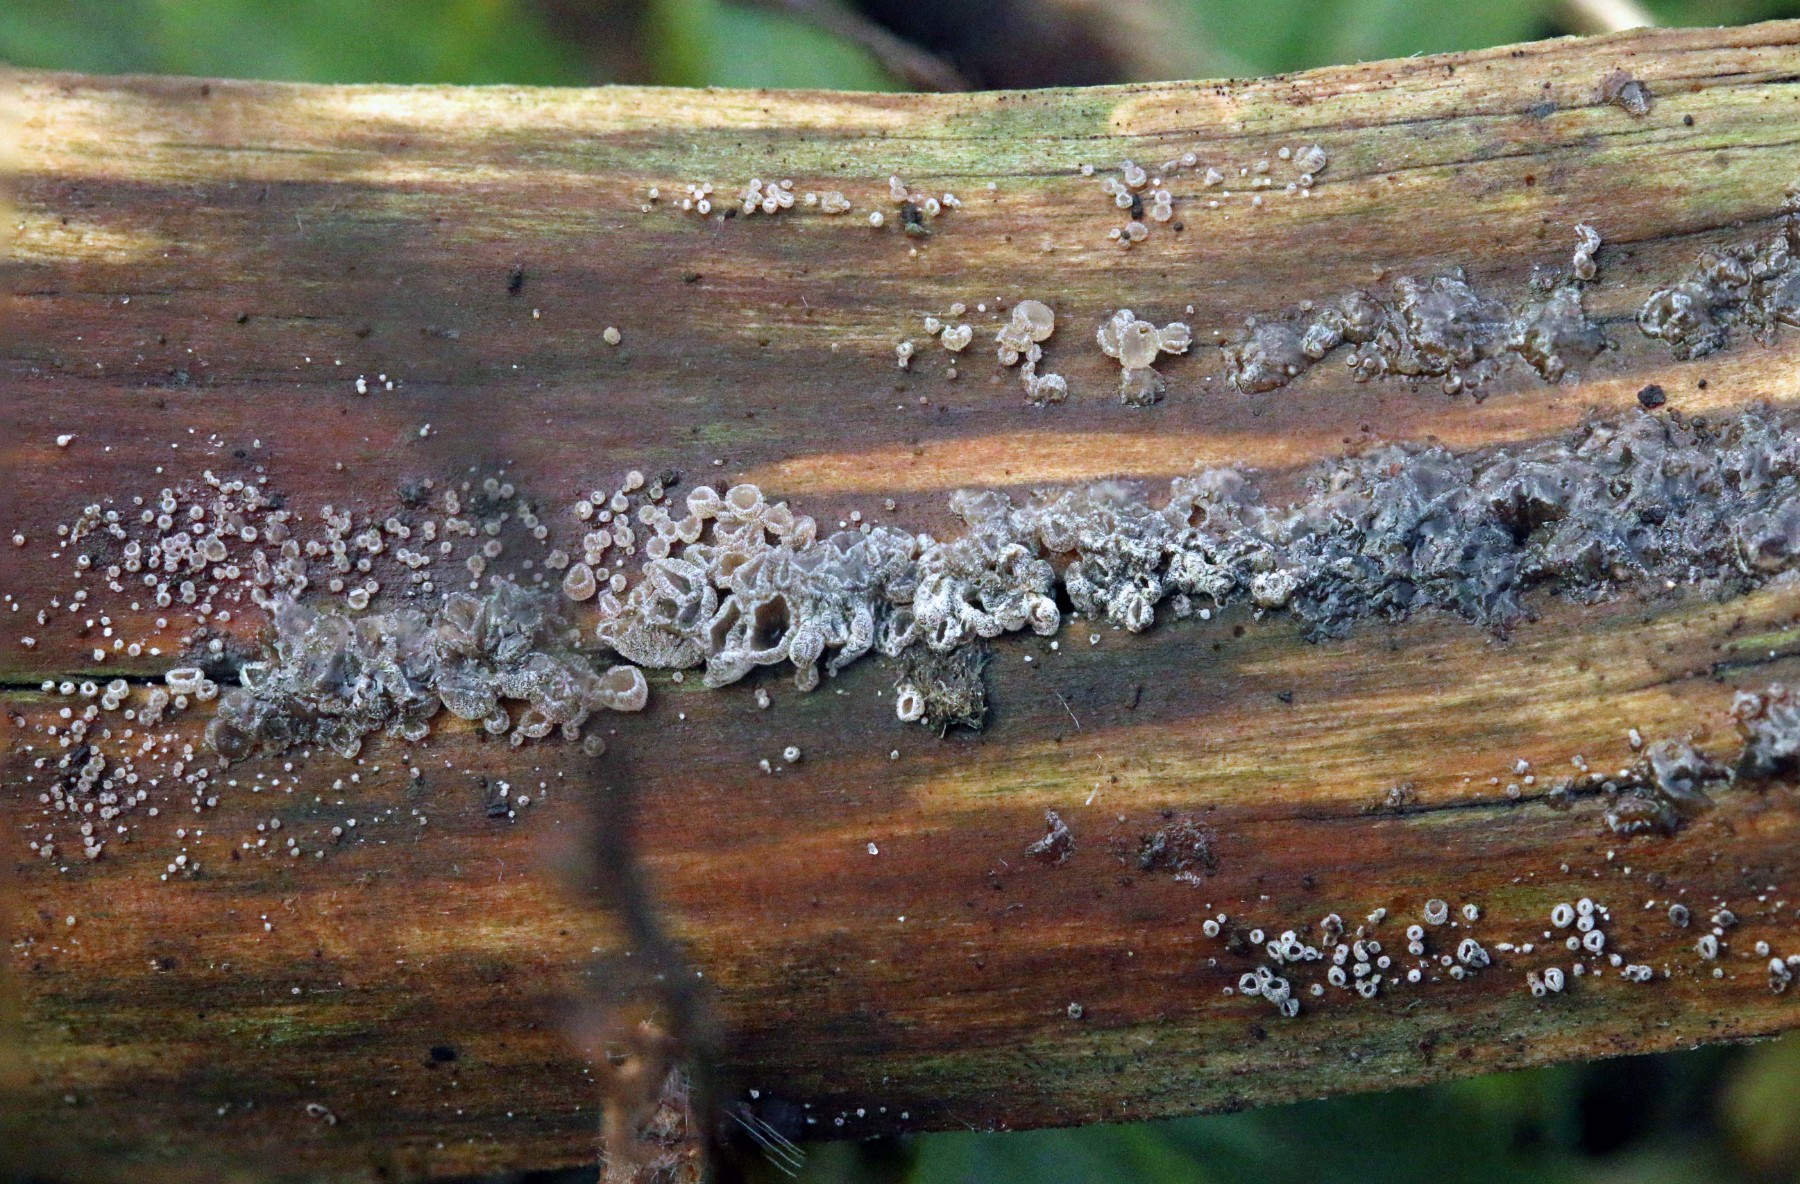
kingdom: Fungi
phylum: Basidiomycota
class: Agaricomycetes
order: Agaricales
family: Pleurotaceae
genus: Resupinatus
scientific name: Resupinatus griseopallidus
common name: ene-barkhat
